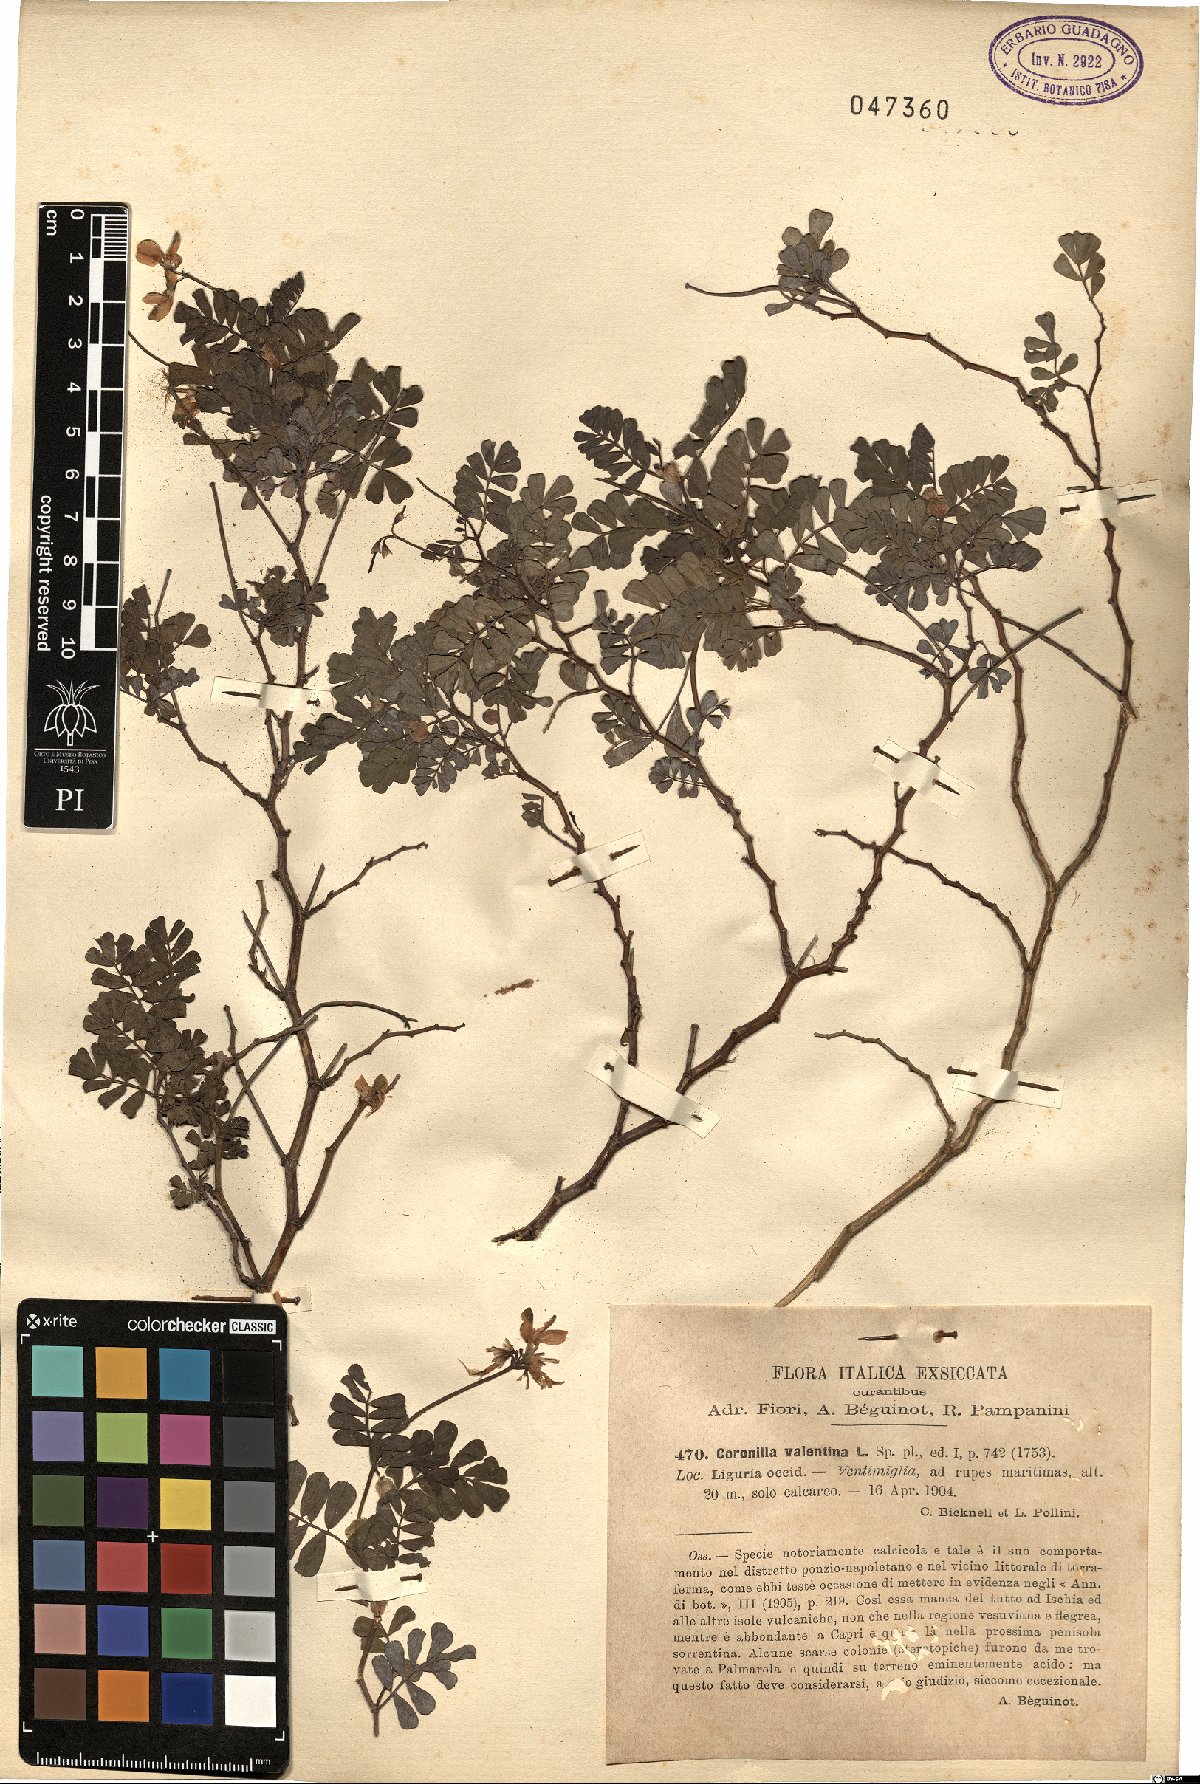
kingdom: Plantae
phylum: Tracheophyta
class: Magnoliopsida
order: Fabales
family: Fabaceae
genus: Coronilla
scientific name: Coronilla valentina
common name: Shrubby scorpion-vetch
